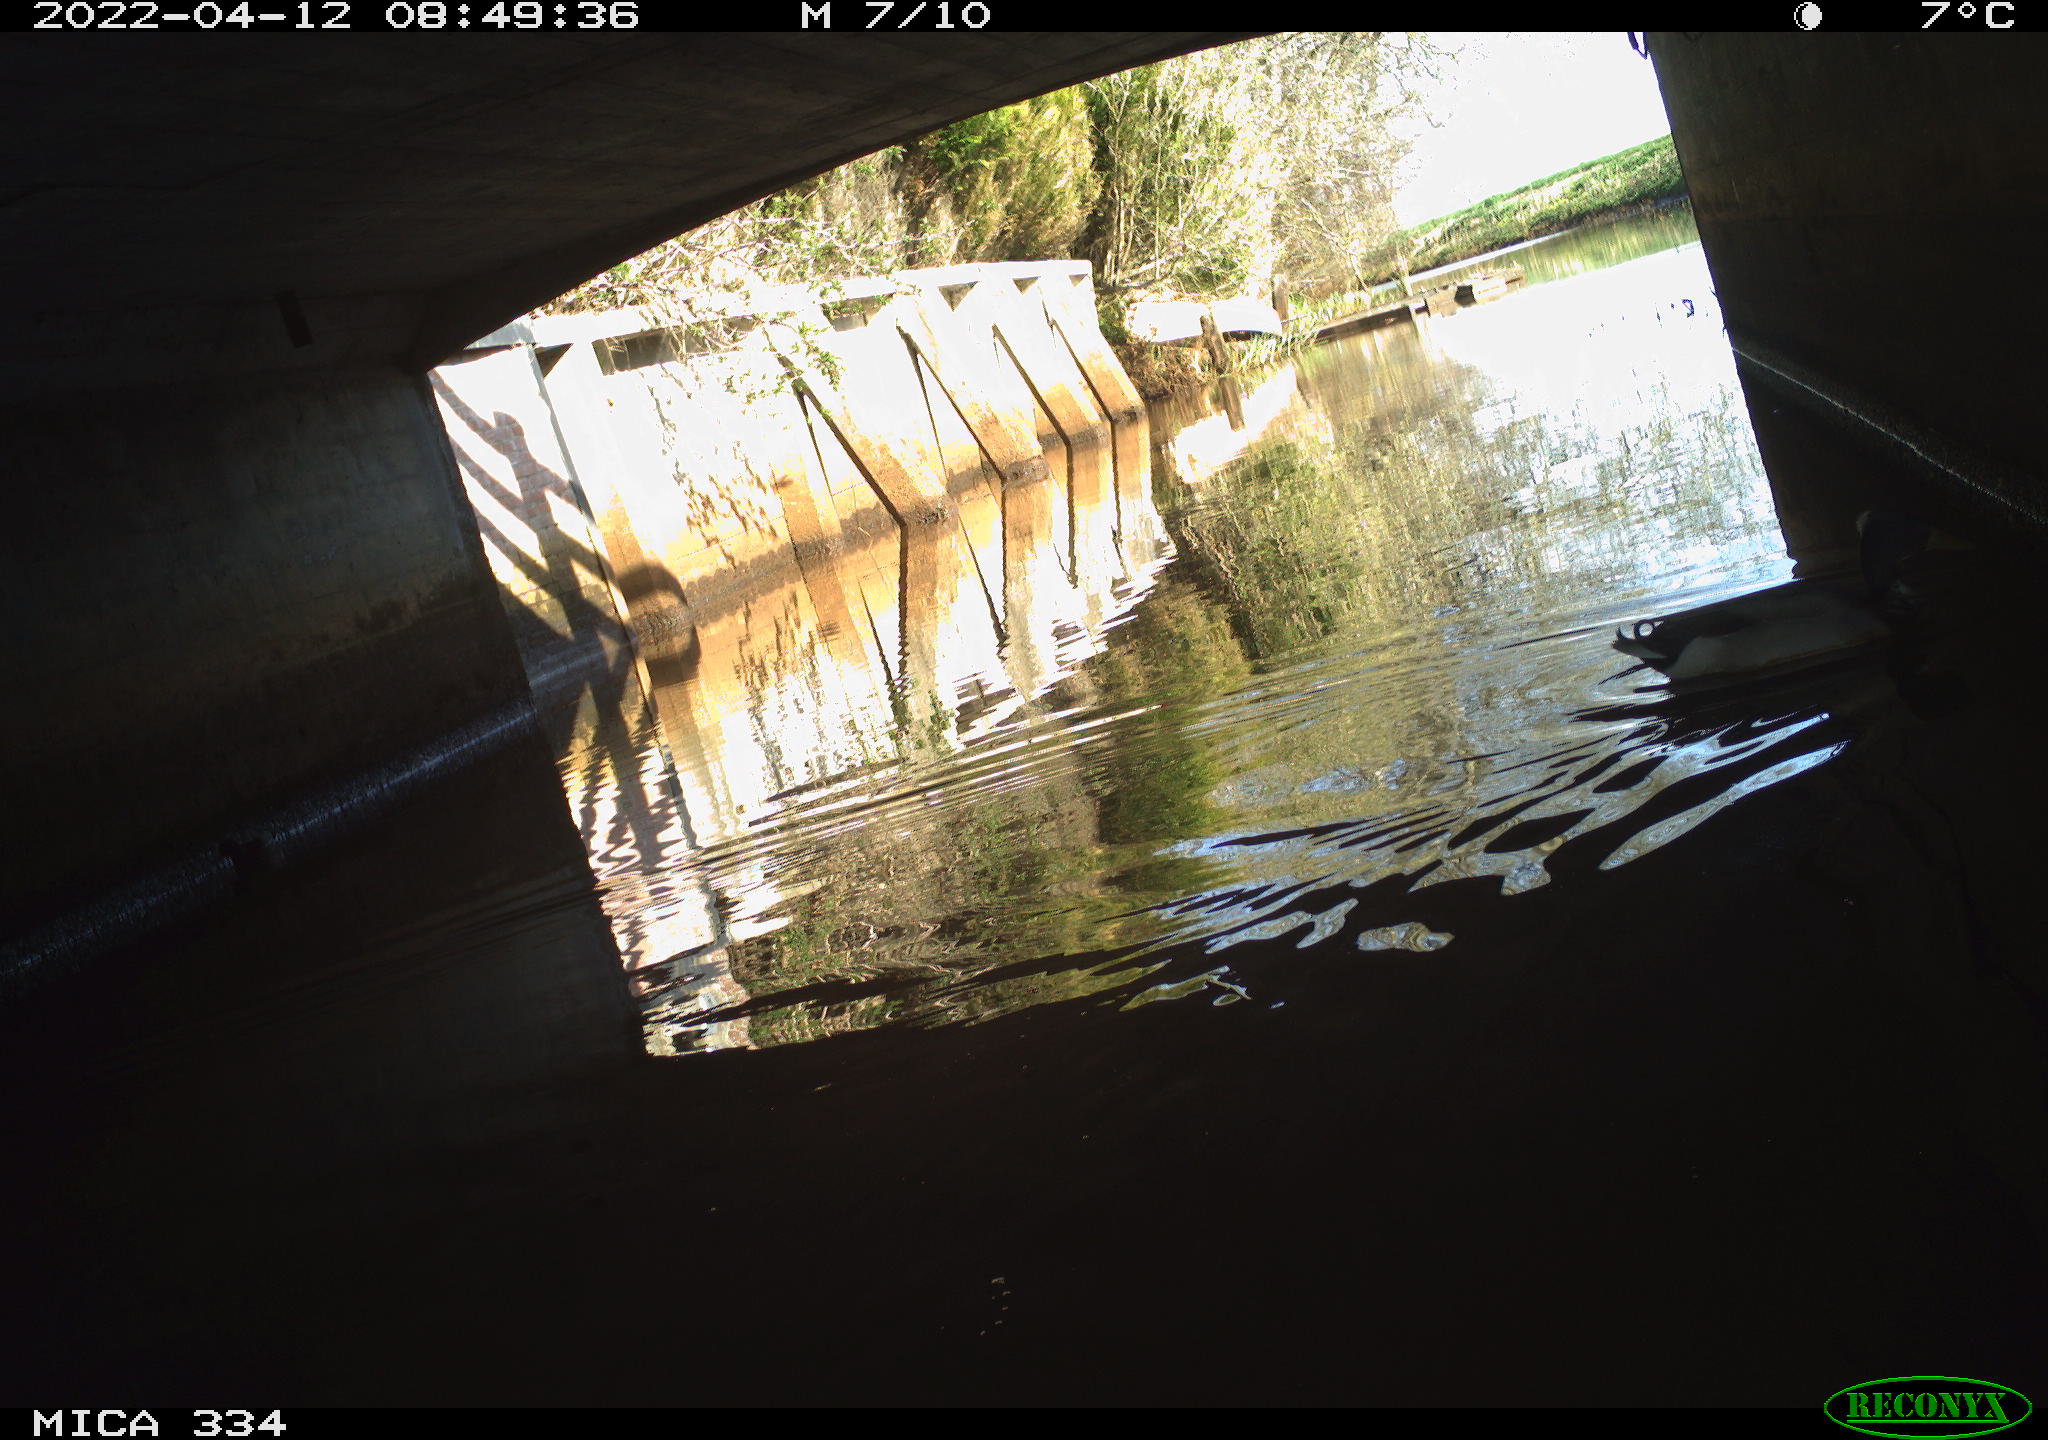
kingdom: Animalia
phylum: Chordata
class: Aves
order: Anseriformes
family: Anatidae
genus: Anas
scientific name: Anas platyrhynchos
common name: Mallard
